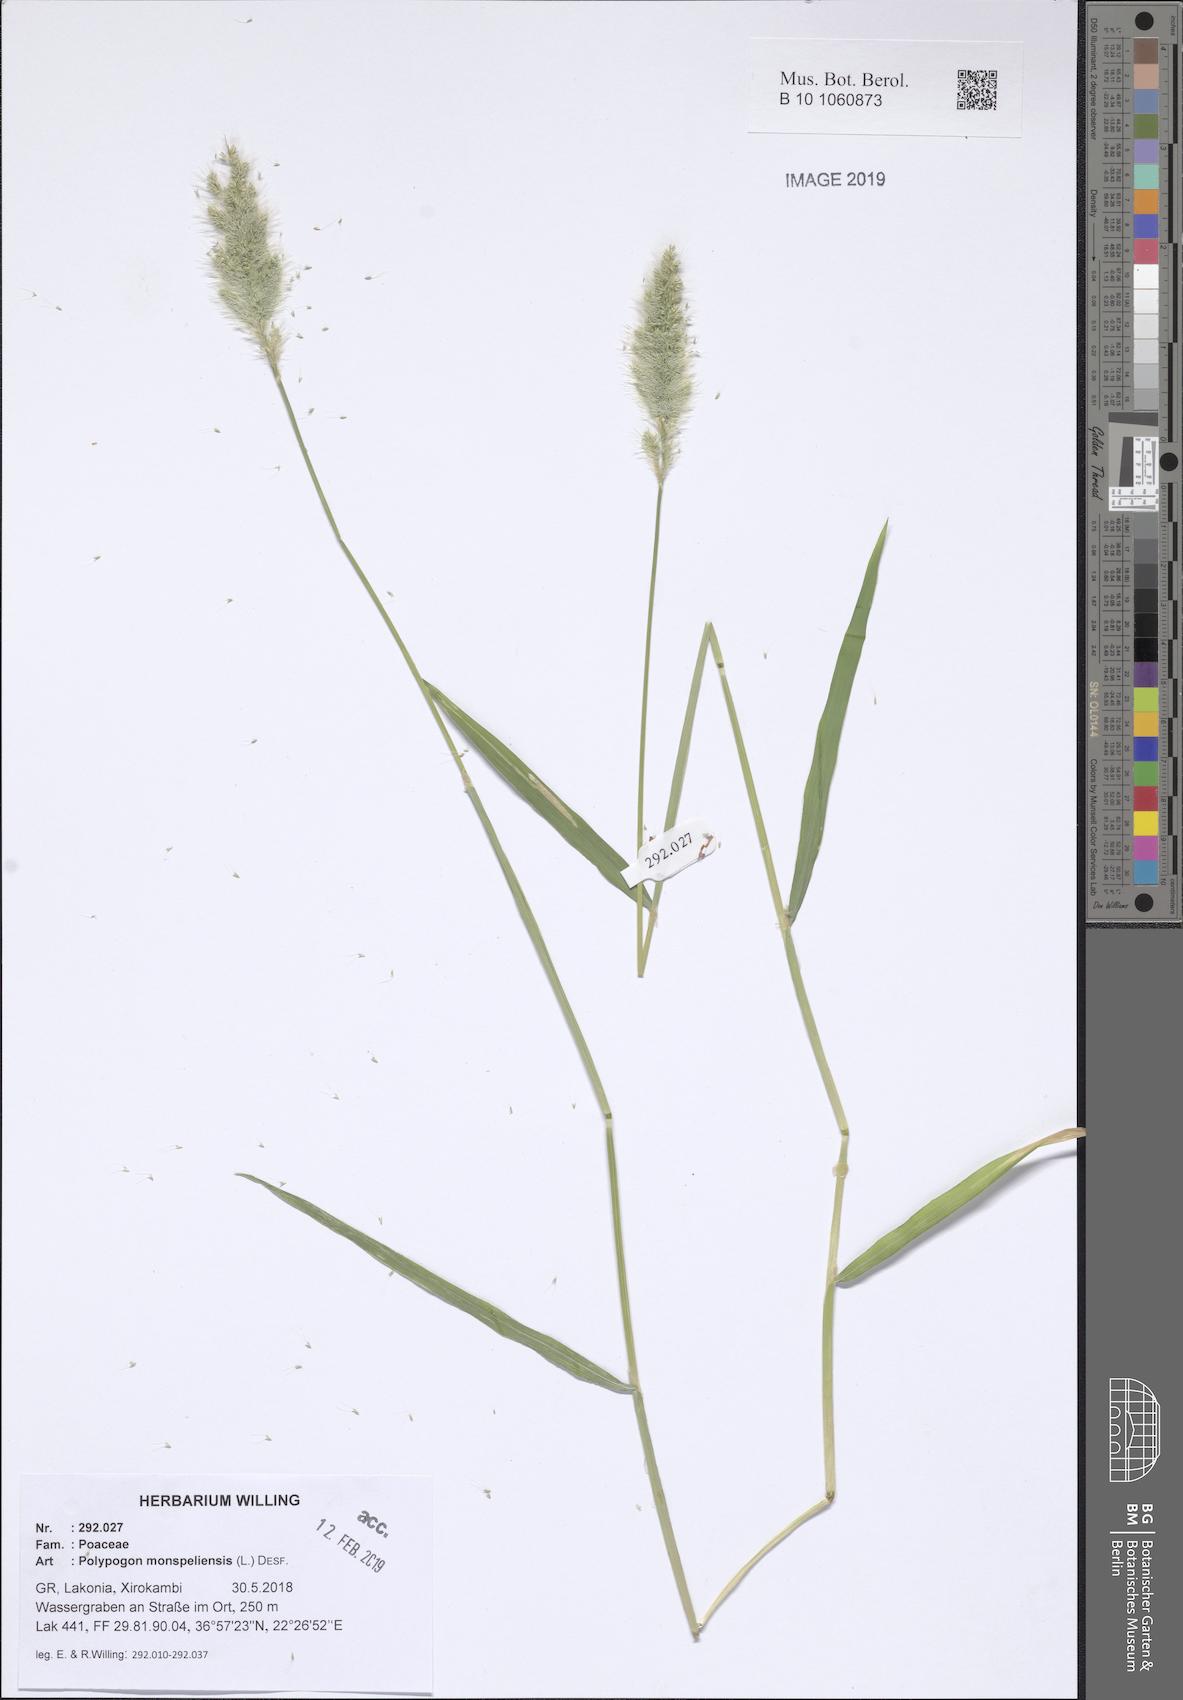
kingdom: Plantae
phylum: Tracheophyta
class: Liliopsida
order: Poales
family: Poaceae
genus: Polypogon
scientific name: Polypogon monspeliensis
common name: Annual rabbitsfoot grass
